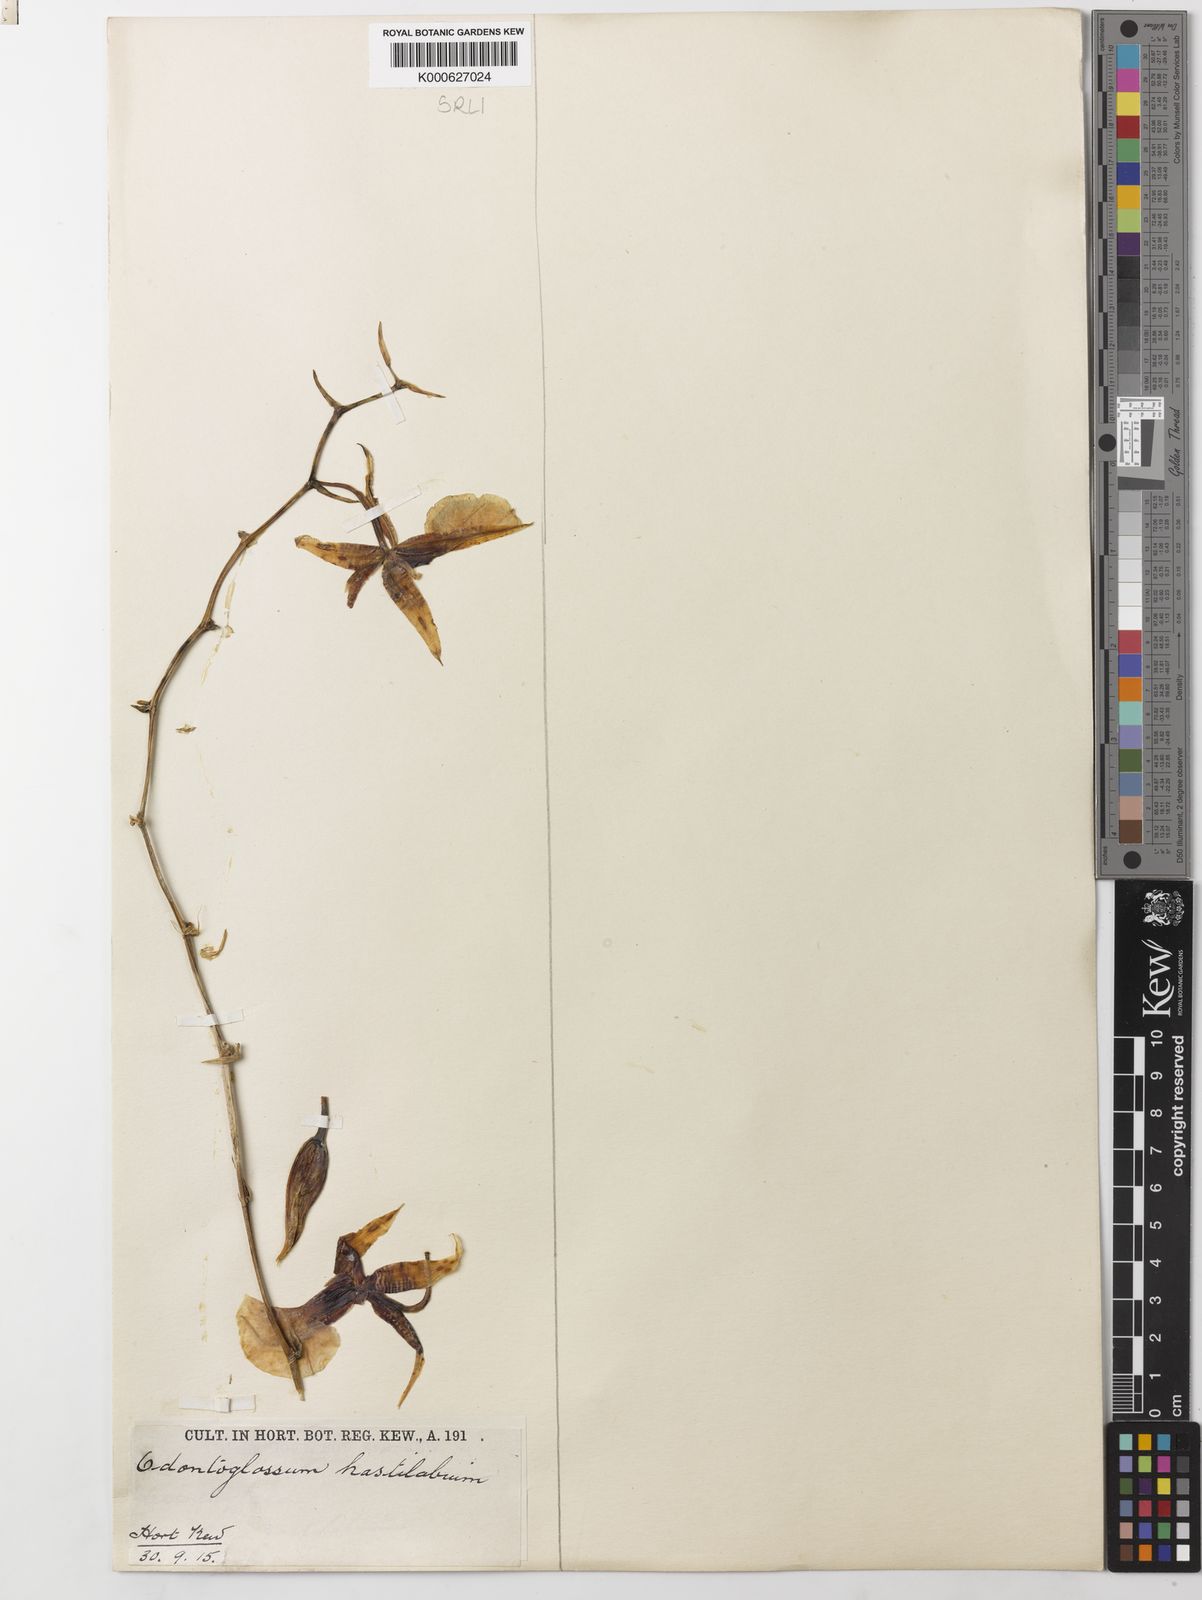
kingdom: Plantae
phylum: Tracheophyta
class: Liliopsida
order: Asparagales
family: Orchidaceae
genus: Oncidium
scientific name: Oncidium hastilabium
